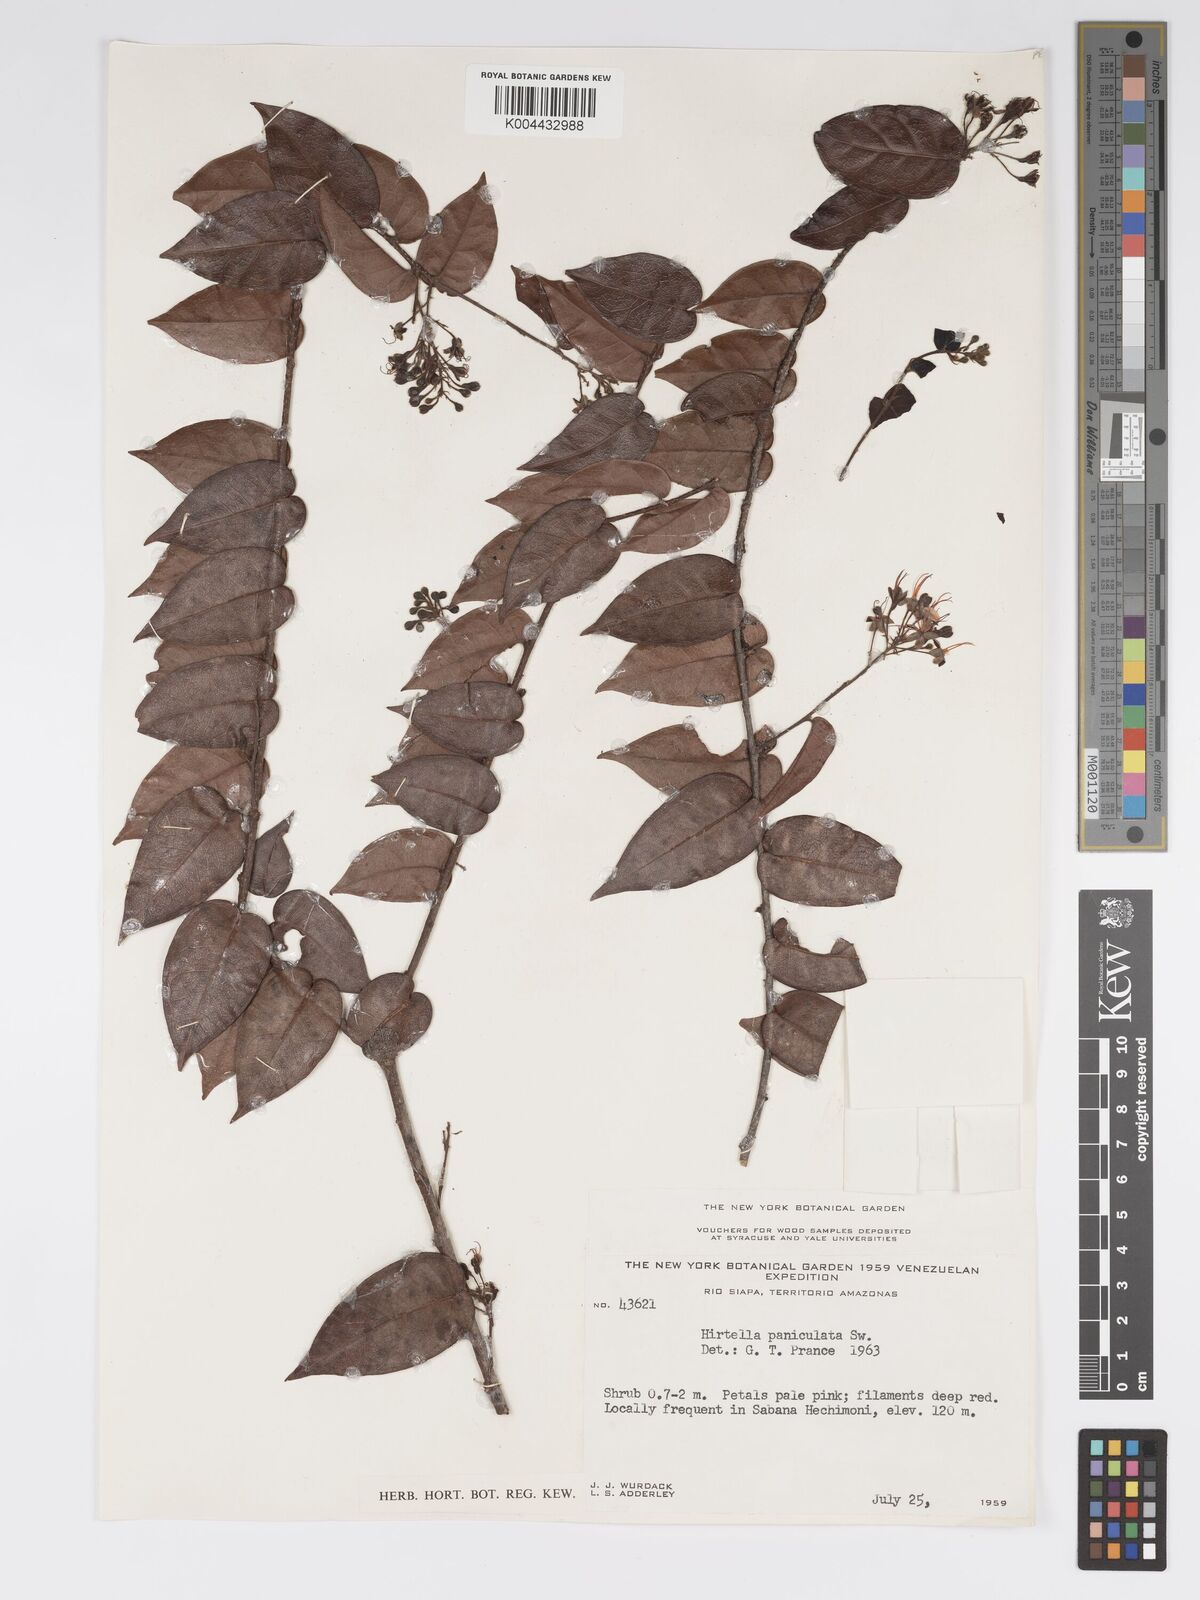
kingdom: Plantae
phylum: Tracheophyta
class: Magnoliopsida
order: Malpighiales
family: Chrysobalanaceae
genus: Hirtella
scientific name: Hirtella
